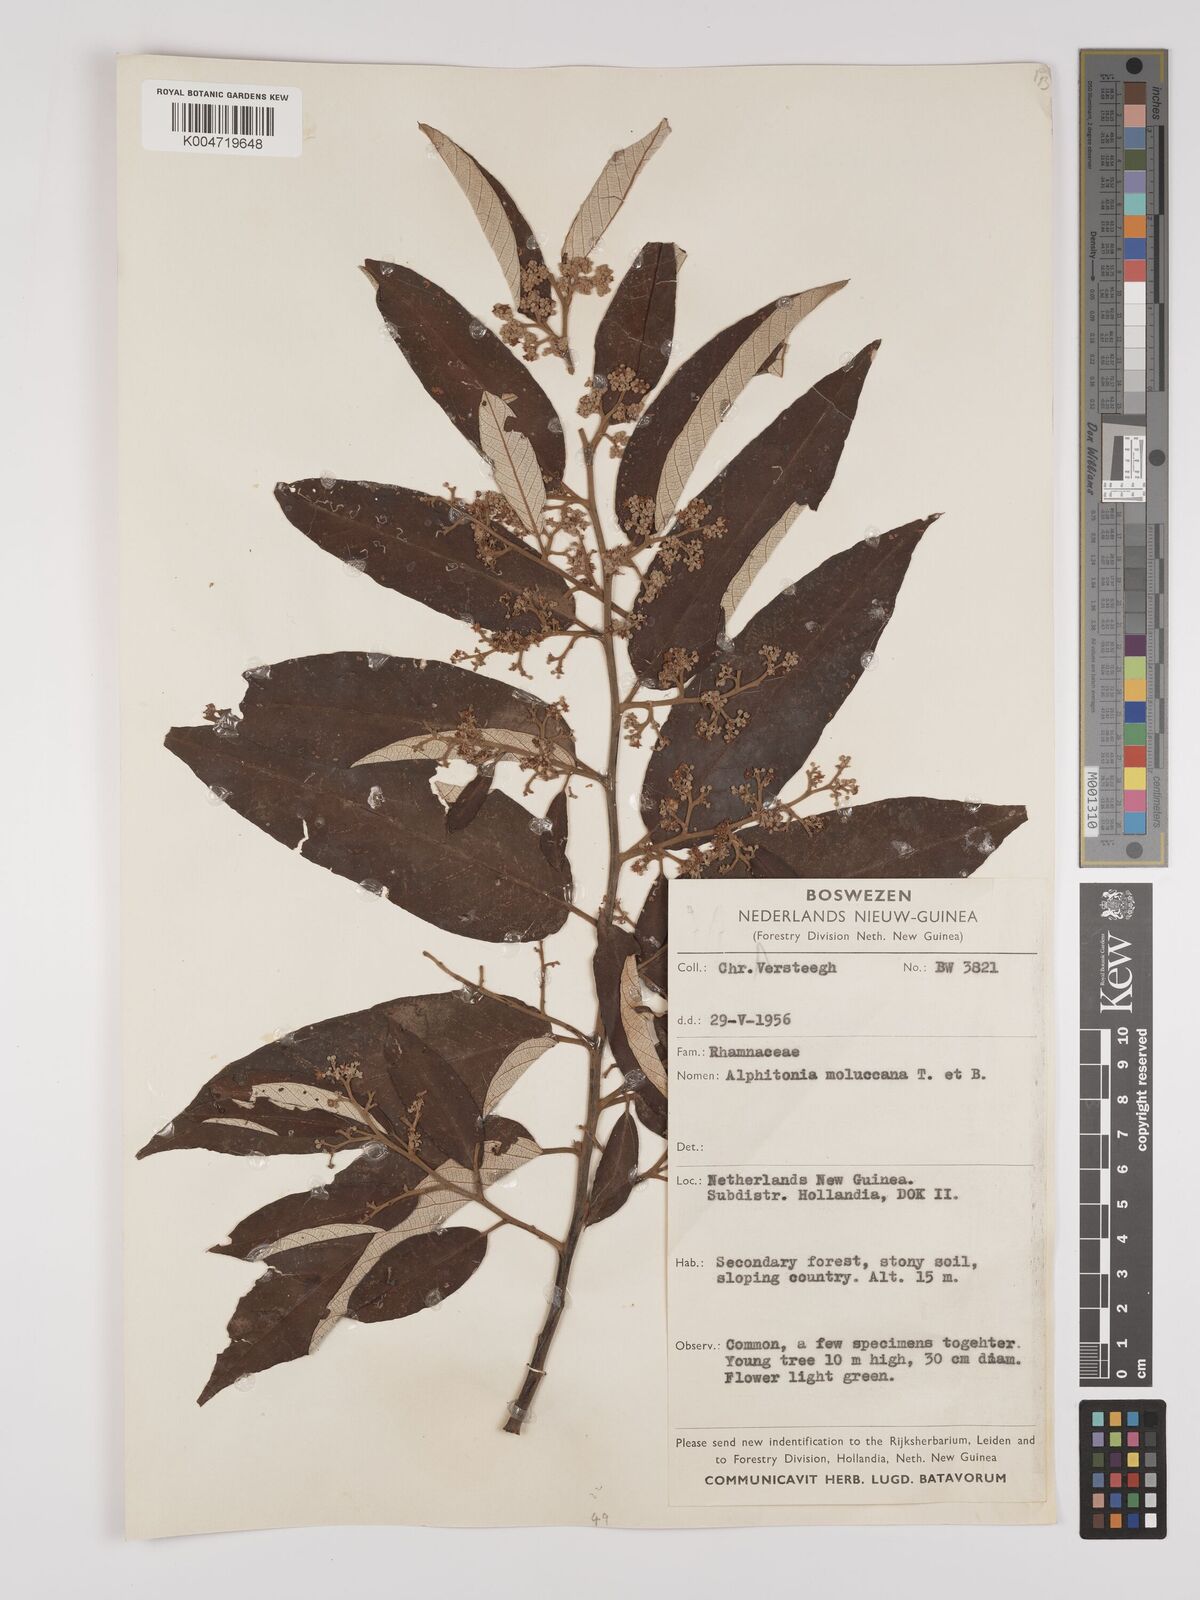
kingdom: Plantae
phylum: Tracheophyta
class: Magnoliopsida
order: Rosales
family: Rhamnaceae
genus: Alphitonia
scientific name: Alphitonia
